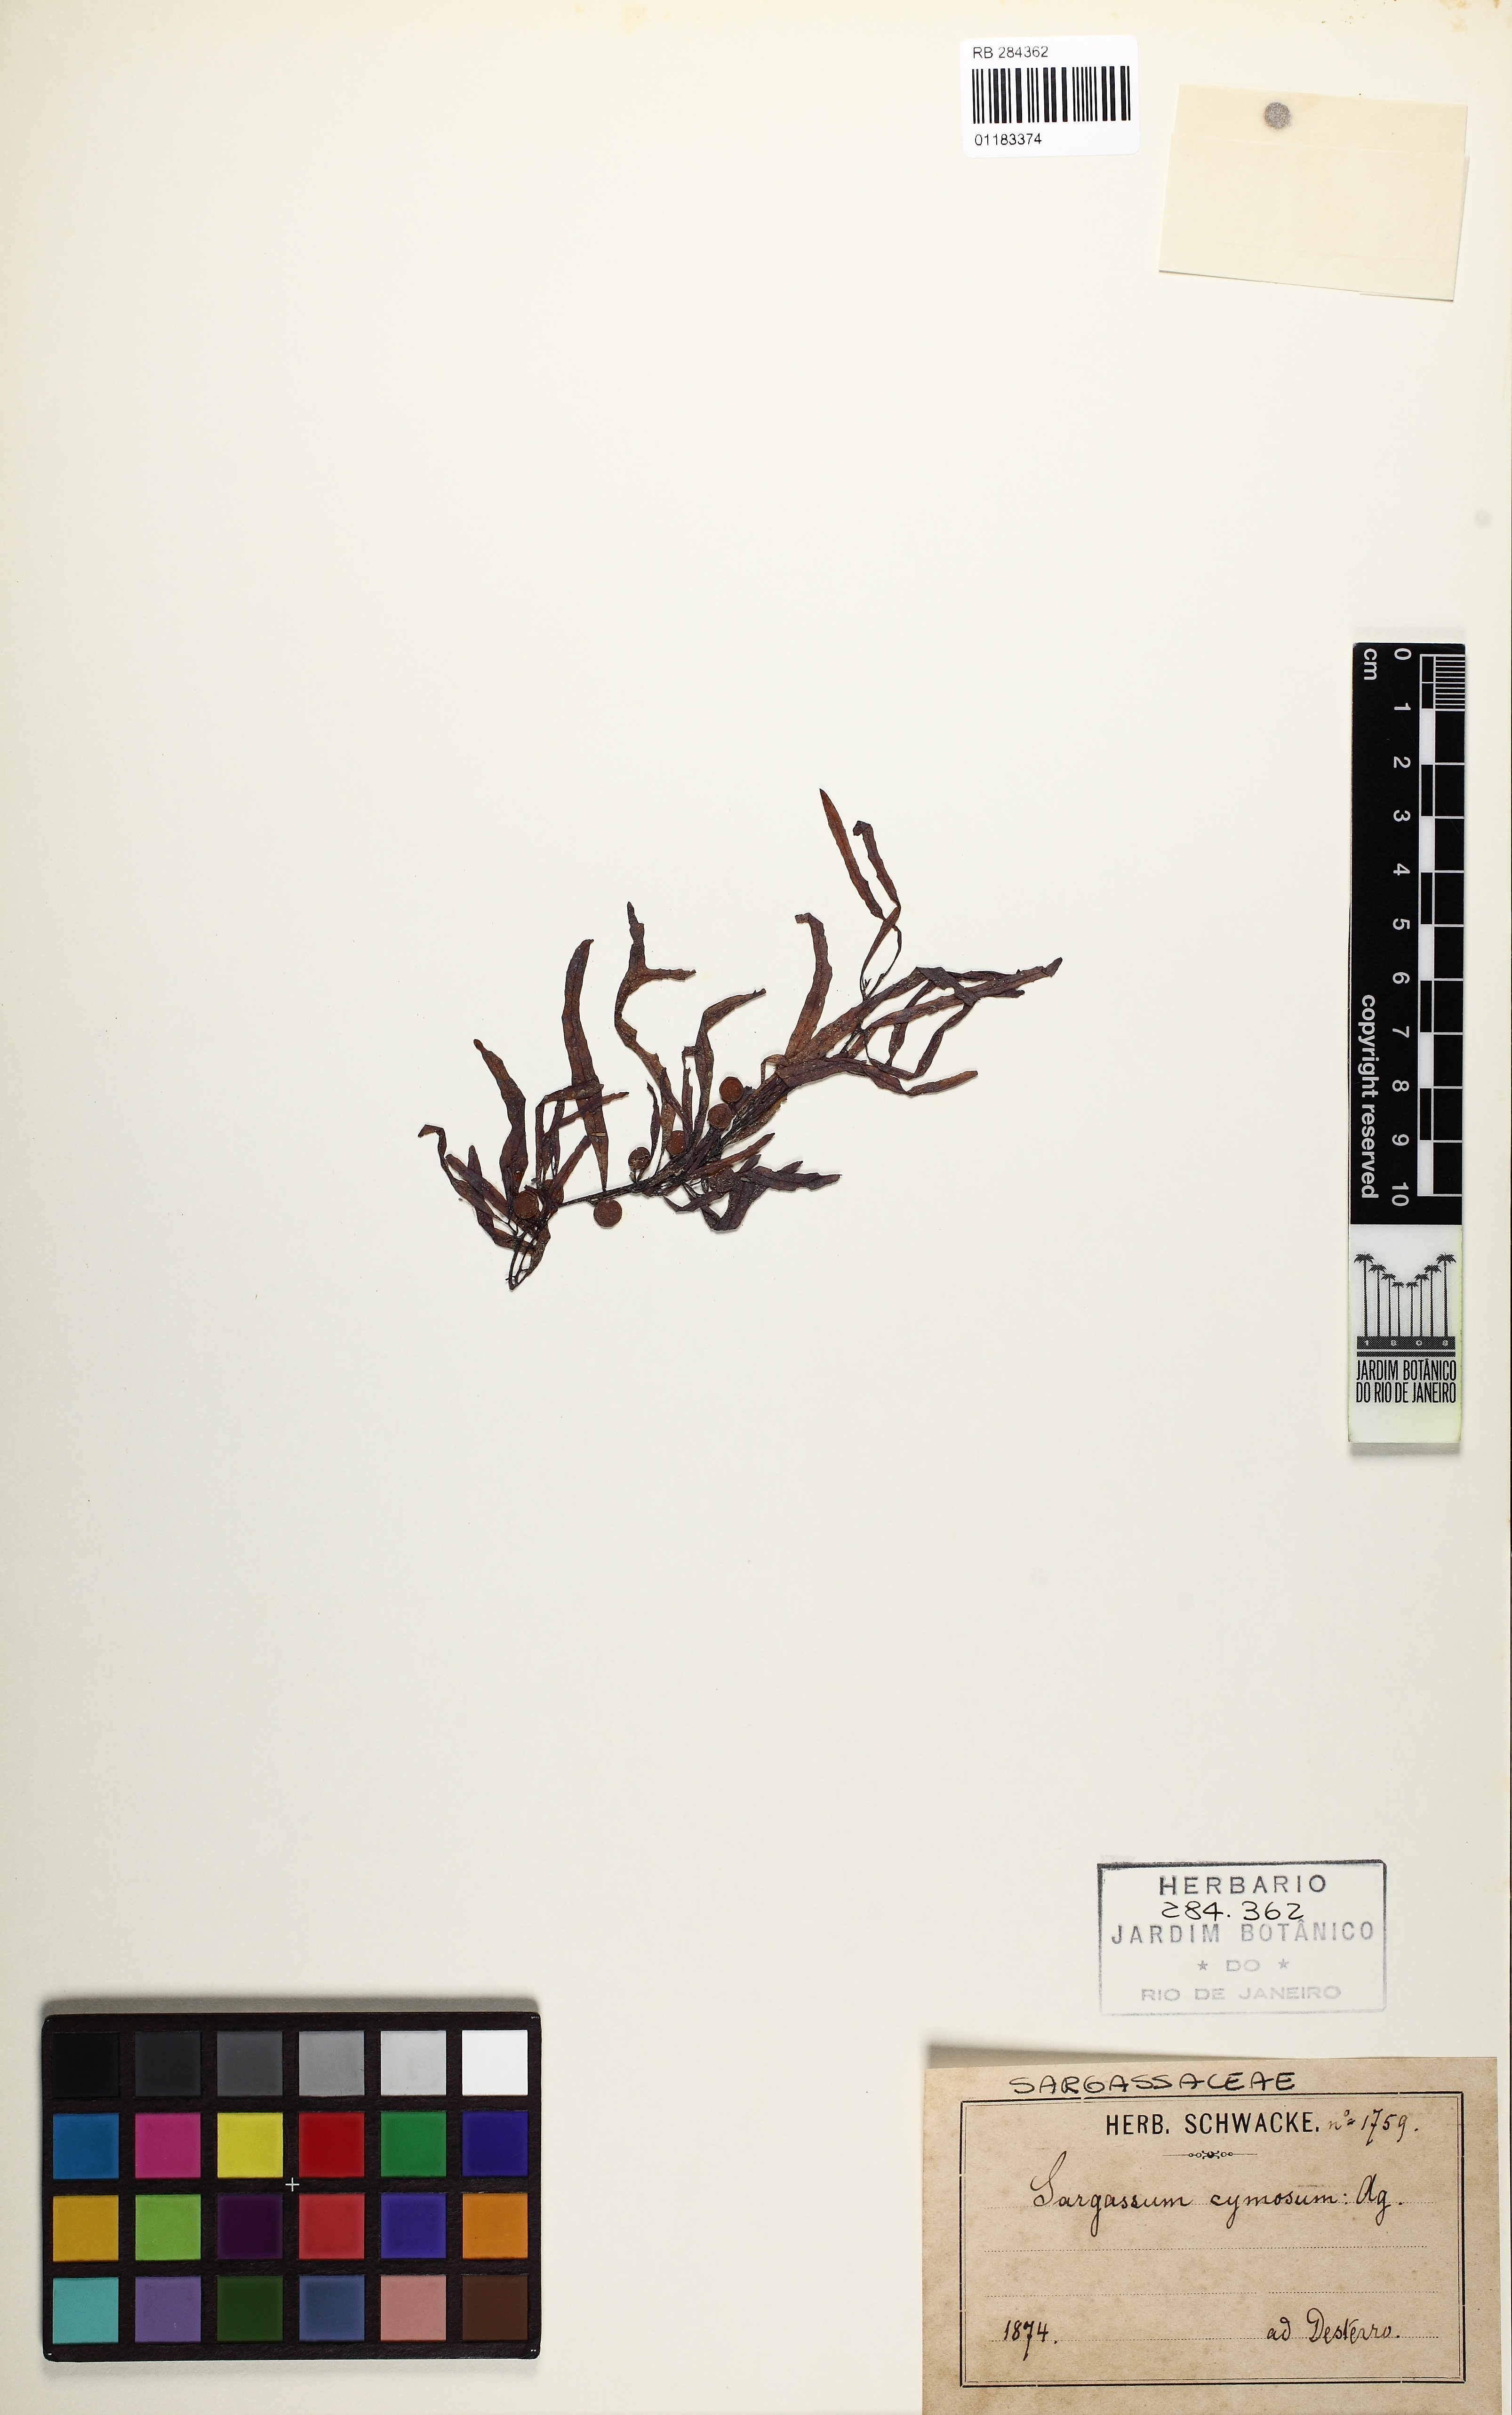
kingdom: Chromista
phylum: Ochrophyta
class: Phaeophyceae
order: Fucales
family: Sargassaceae
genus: Sargassum
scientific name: Sargassum cymosum
